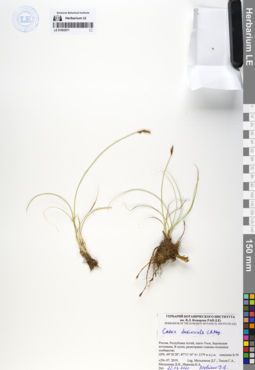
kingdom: Plantae
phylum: Tracheophyta
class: Liliopsida
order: Poales
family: Cyperaceae
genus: Carex
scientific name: Carex duriuscula
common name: Involute-leaved sedge
